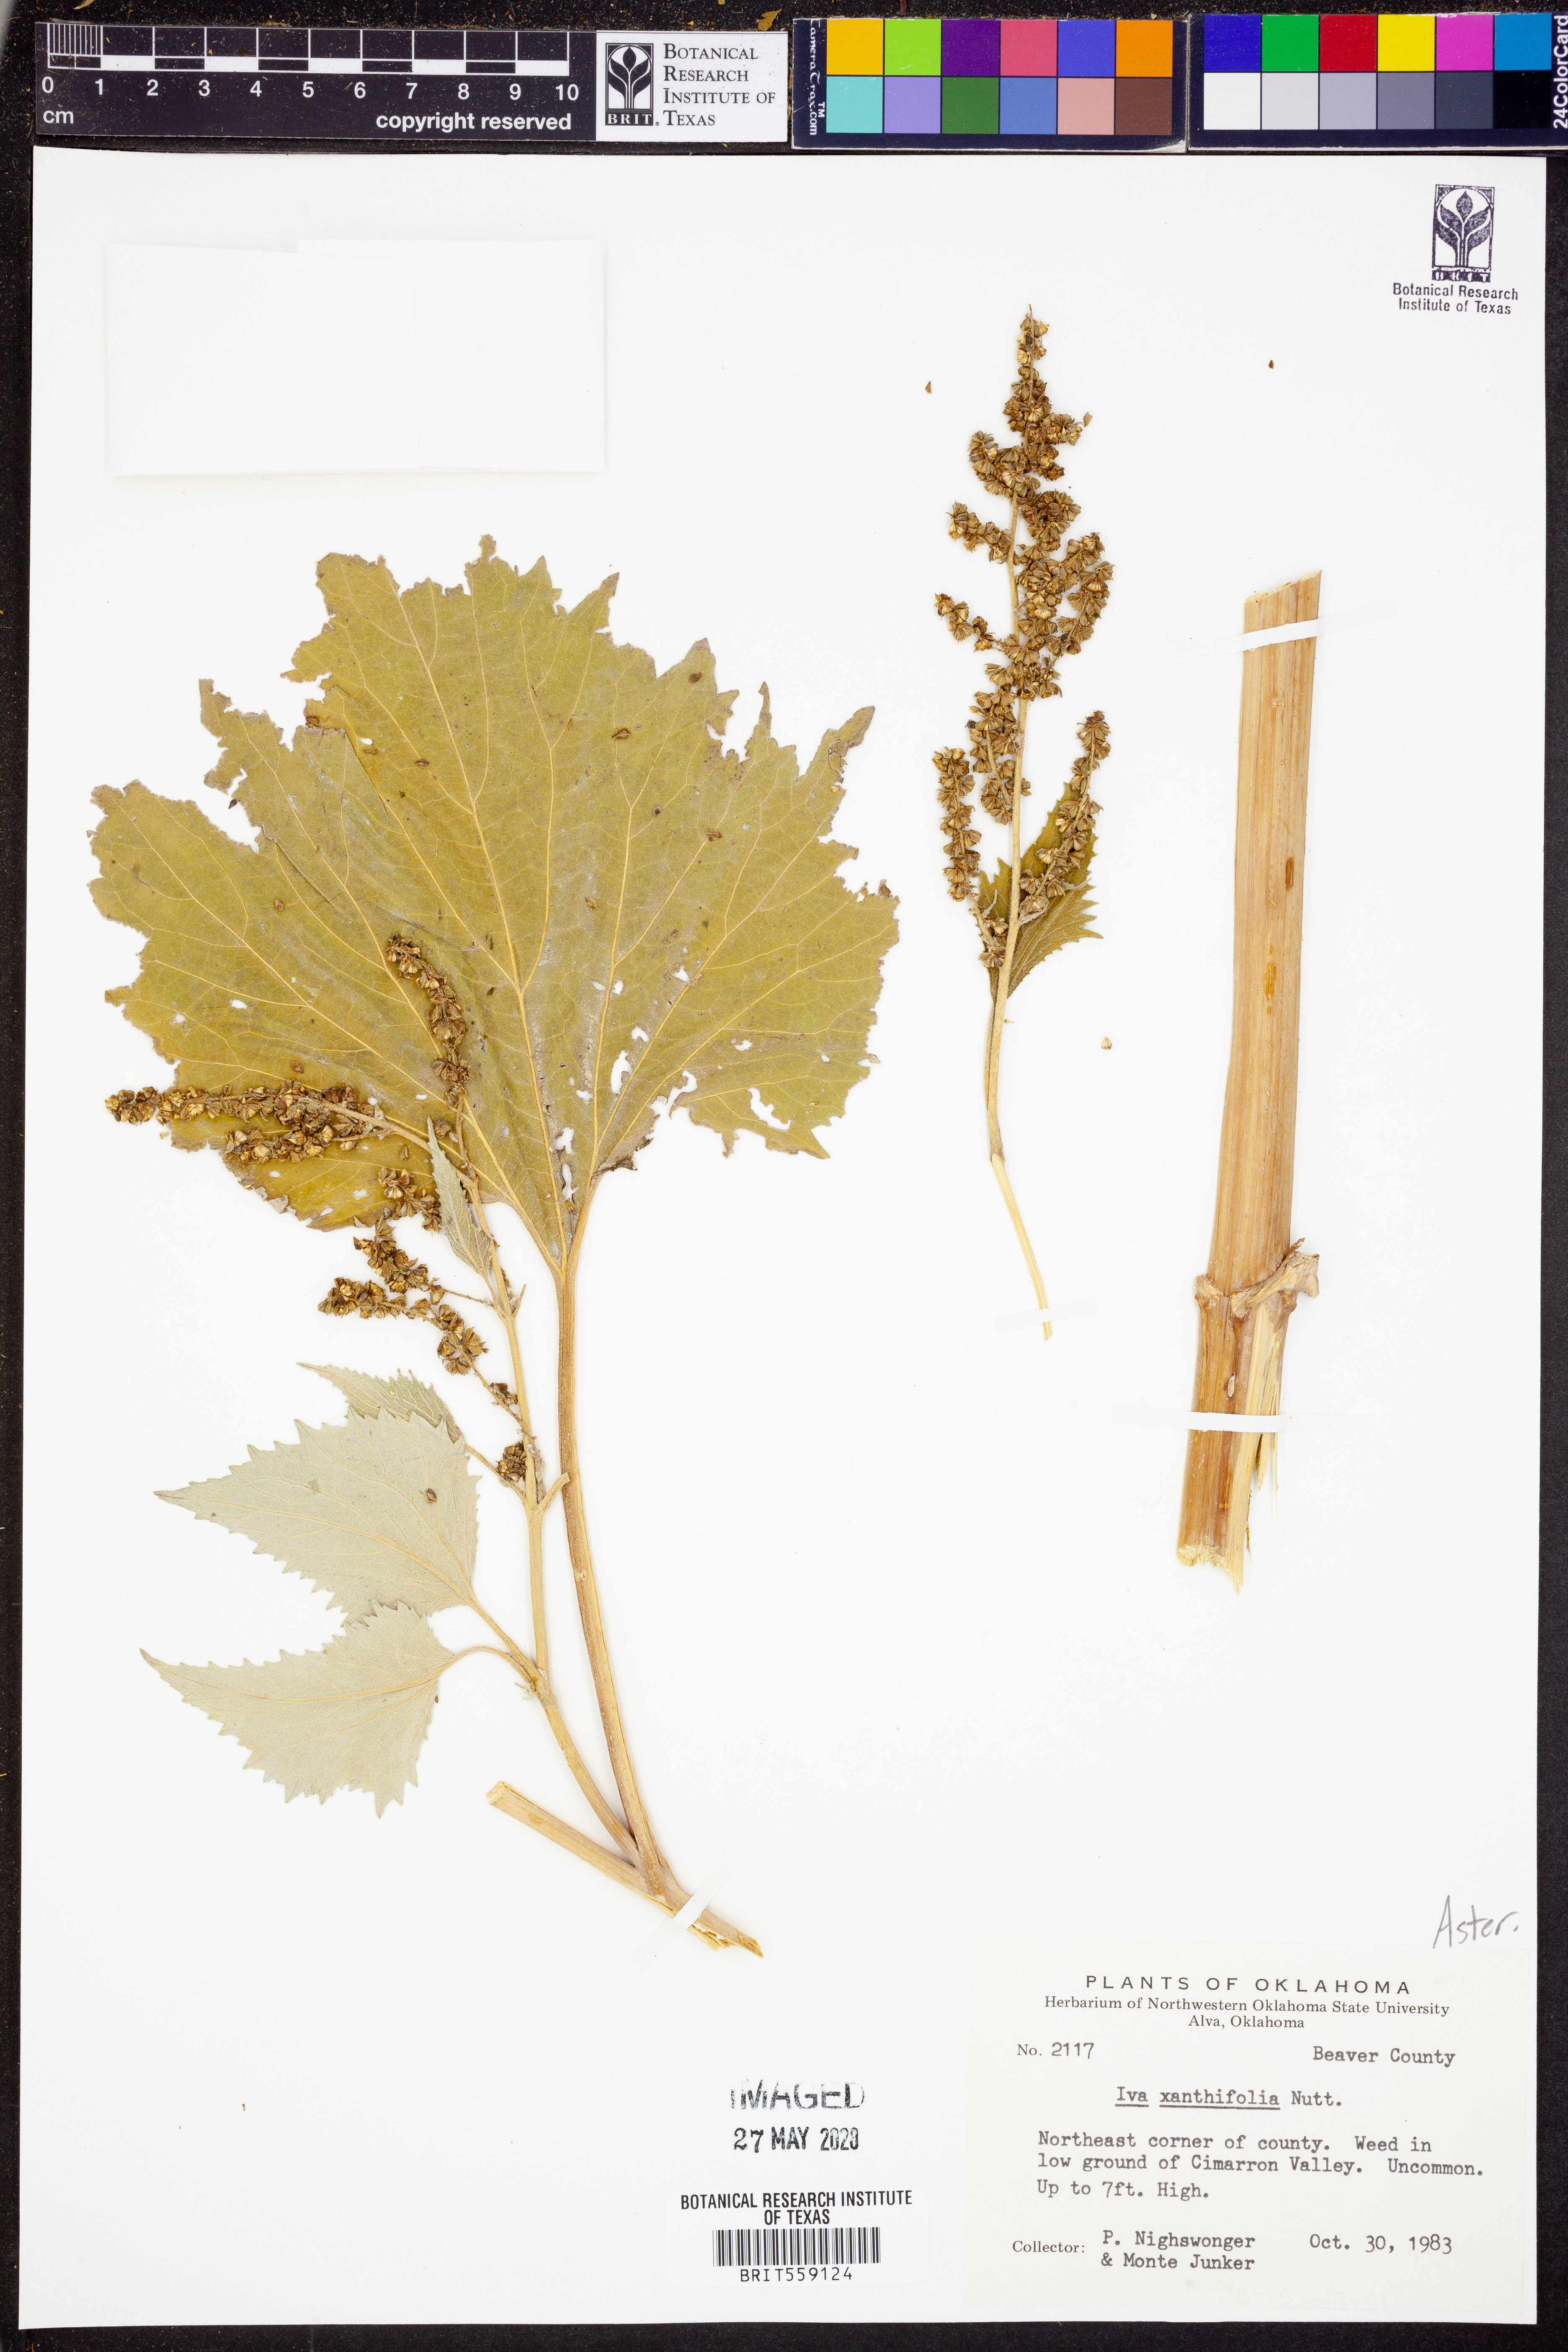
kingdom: Plantae
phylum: Tracheophyta
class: Magnoliopsida
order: Asterales
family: Asteraceae
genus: Cyclachaena
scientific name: Cyclachaena xanthiifolia
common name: Giant sumpweed
